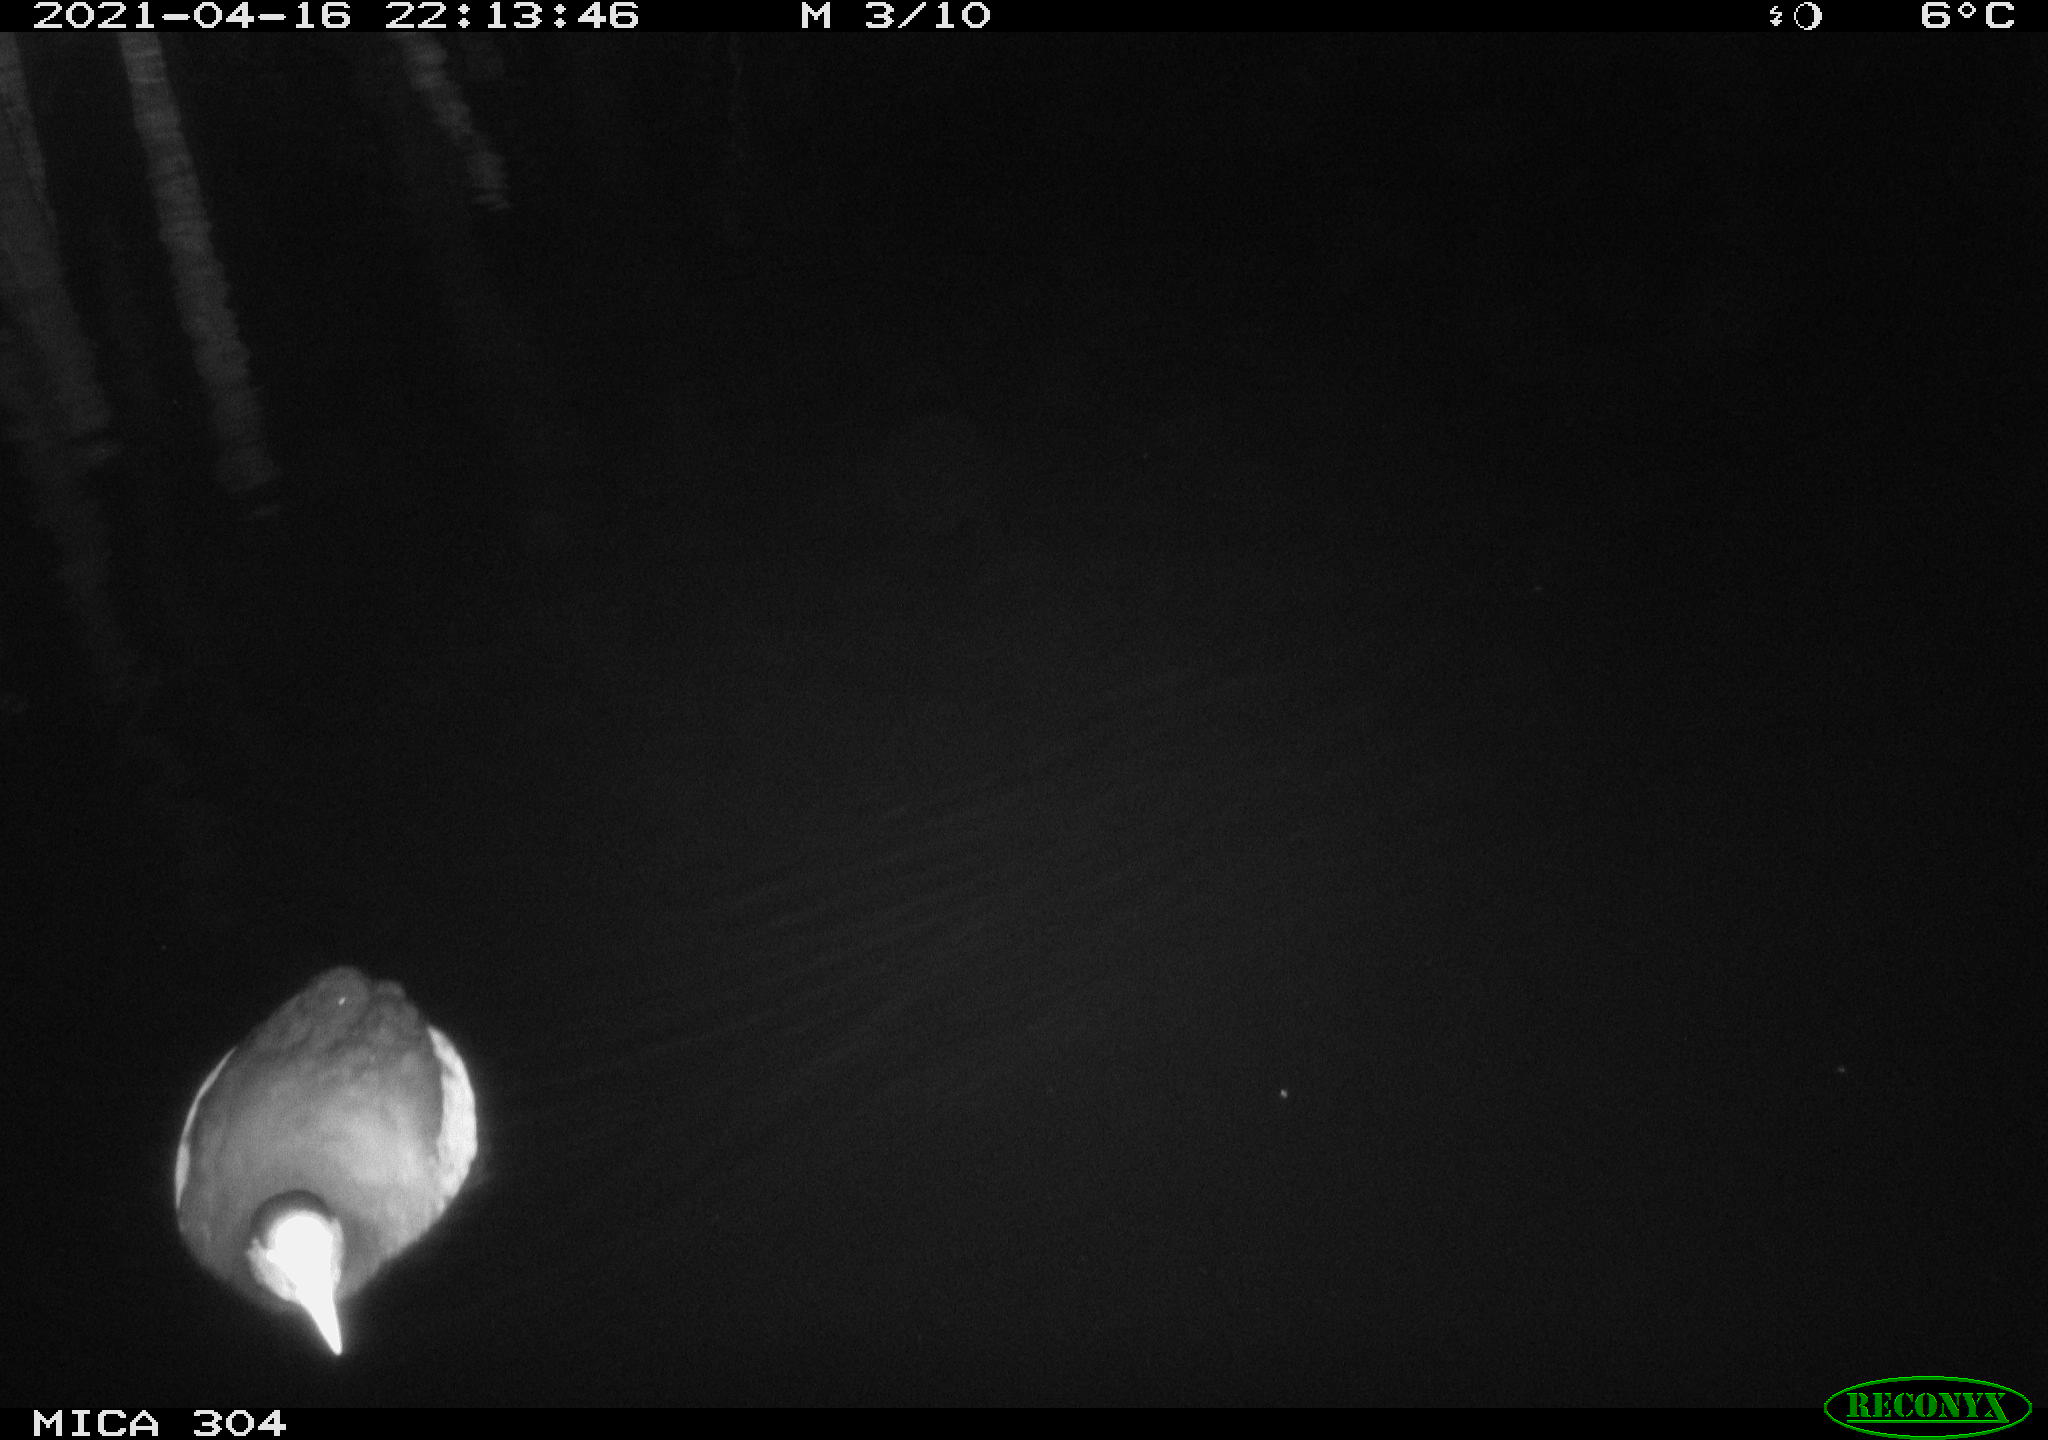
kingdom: Animalia
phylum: Chordata
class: Aves
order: Anseriformes
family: Anatidae
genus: Anas
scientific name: Anas
